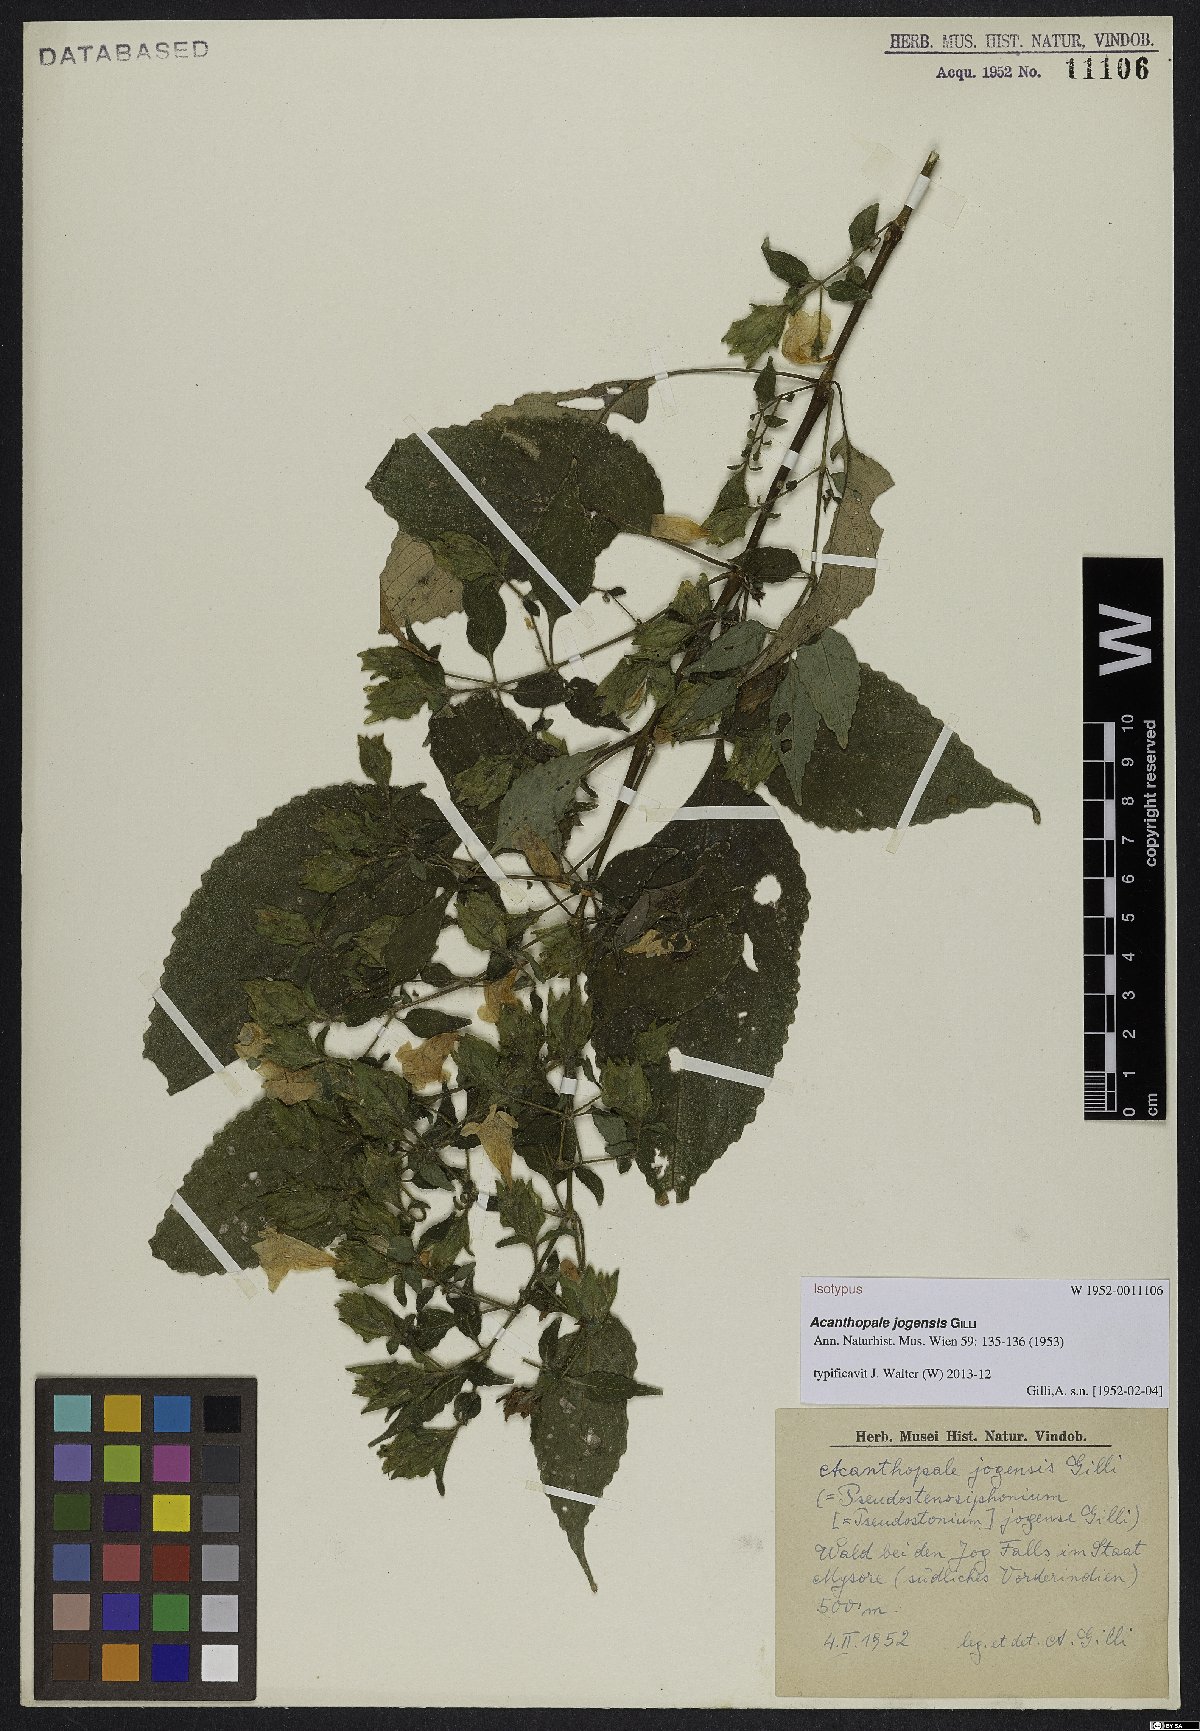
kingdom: Plantae
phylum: Tracheophyta
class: Magnoliopsida
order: Lamiales
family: Acanthaceae
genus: Strobilanthes
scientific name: Strobilanthes jogensis
